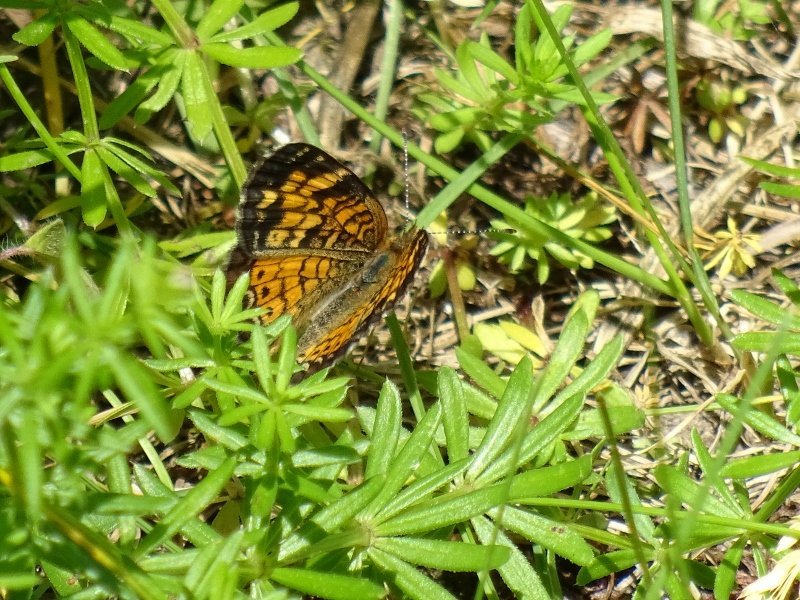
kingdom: Animalia
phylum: Arthropoda
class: Insecta
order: Lepidoptera
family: Nymphalidae
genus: Phyciodes
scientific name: Phyciodes tharos
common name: Pearl Crescent
